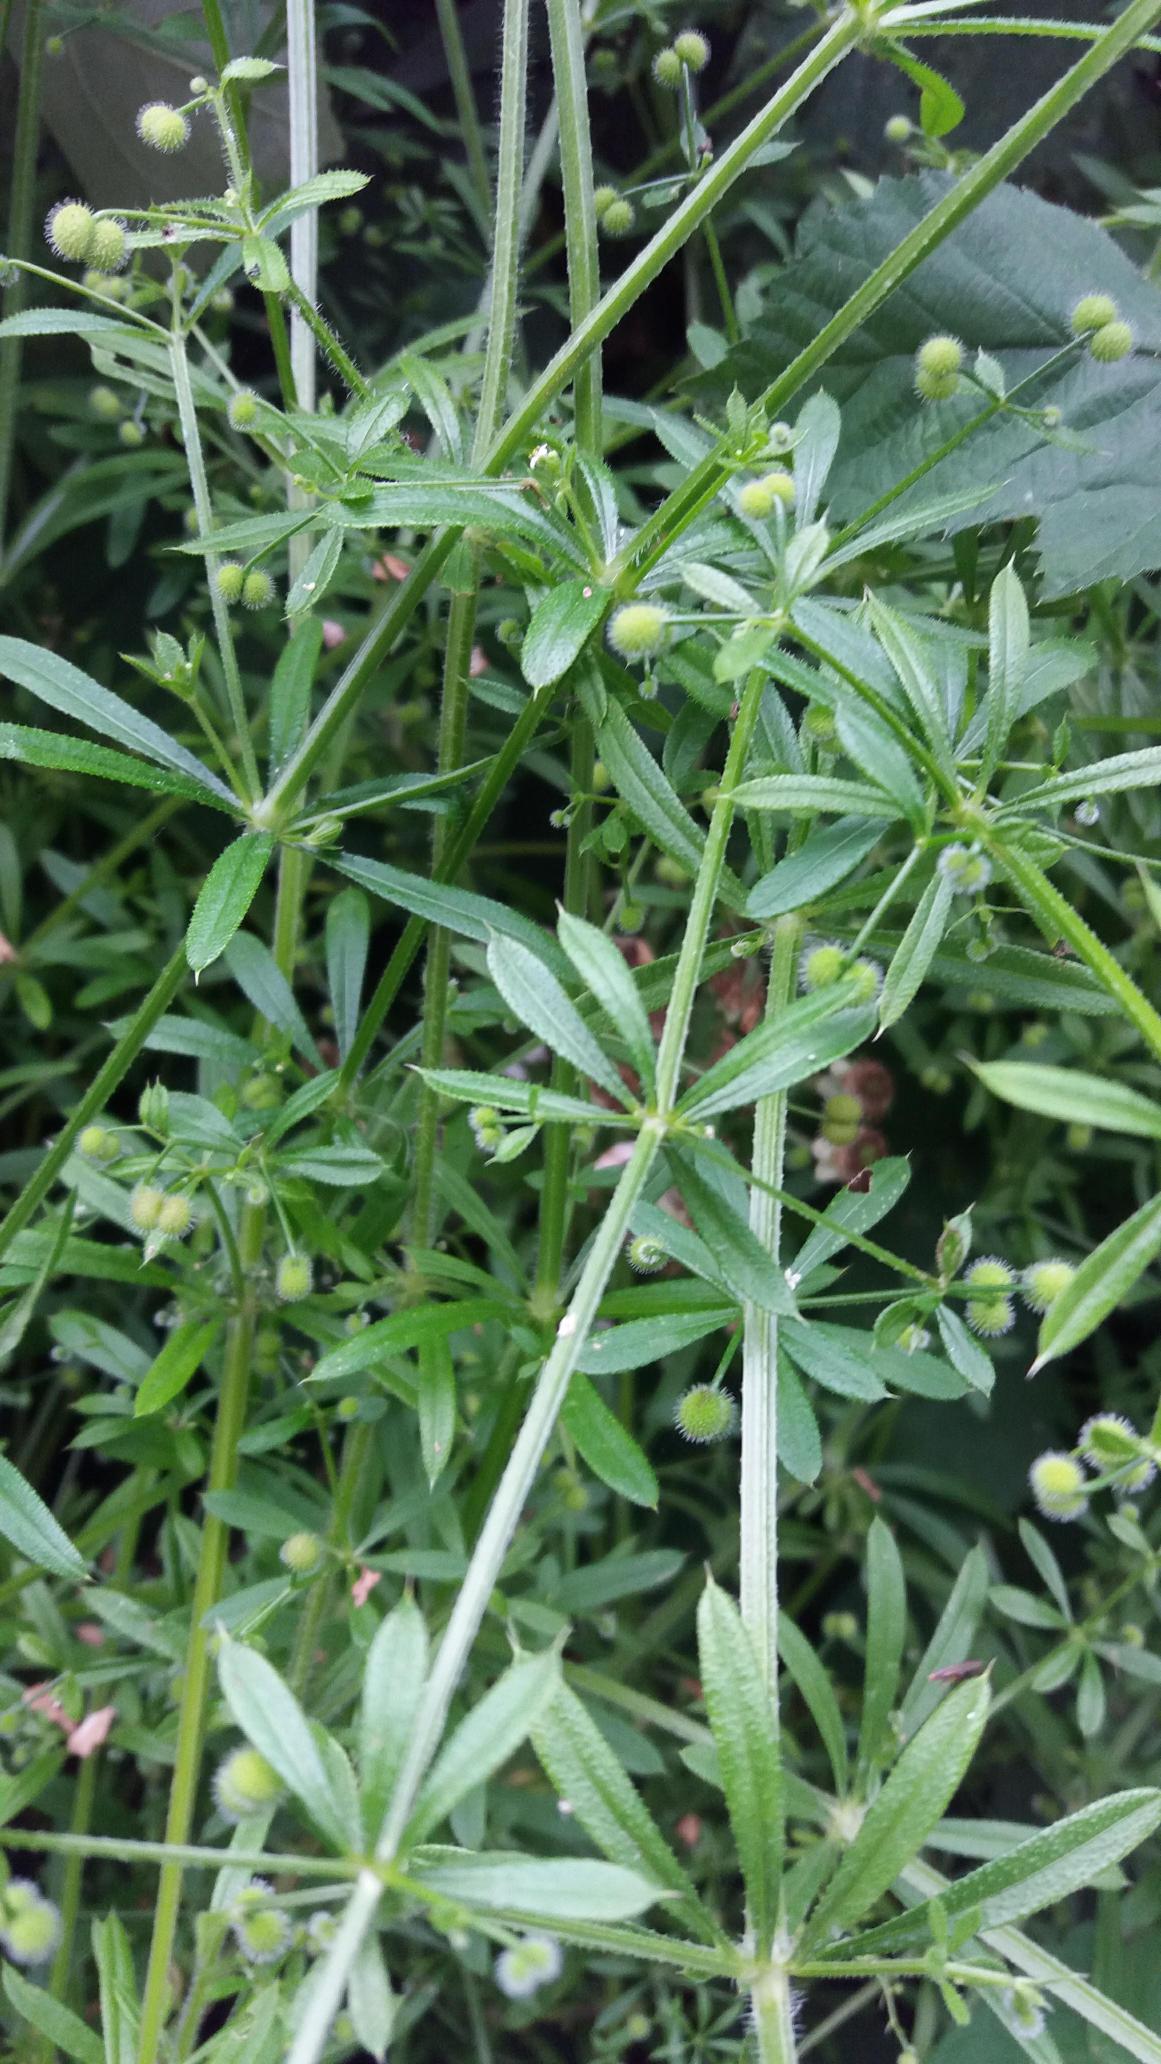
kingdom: Plantae
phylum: Tracheophyta
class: Magnoliopsida
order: Gentianales
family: Rubiaceae
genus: Galium
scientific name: Galium aparine
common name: Burre-snerre
